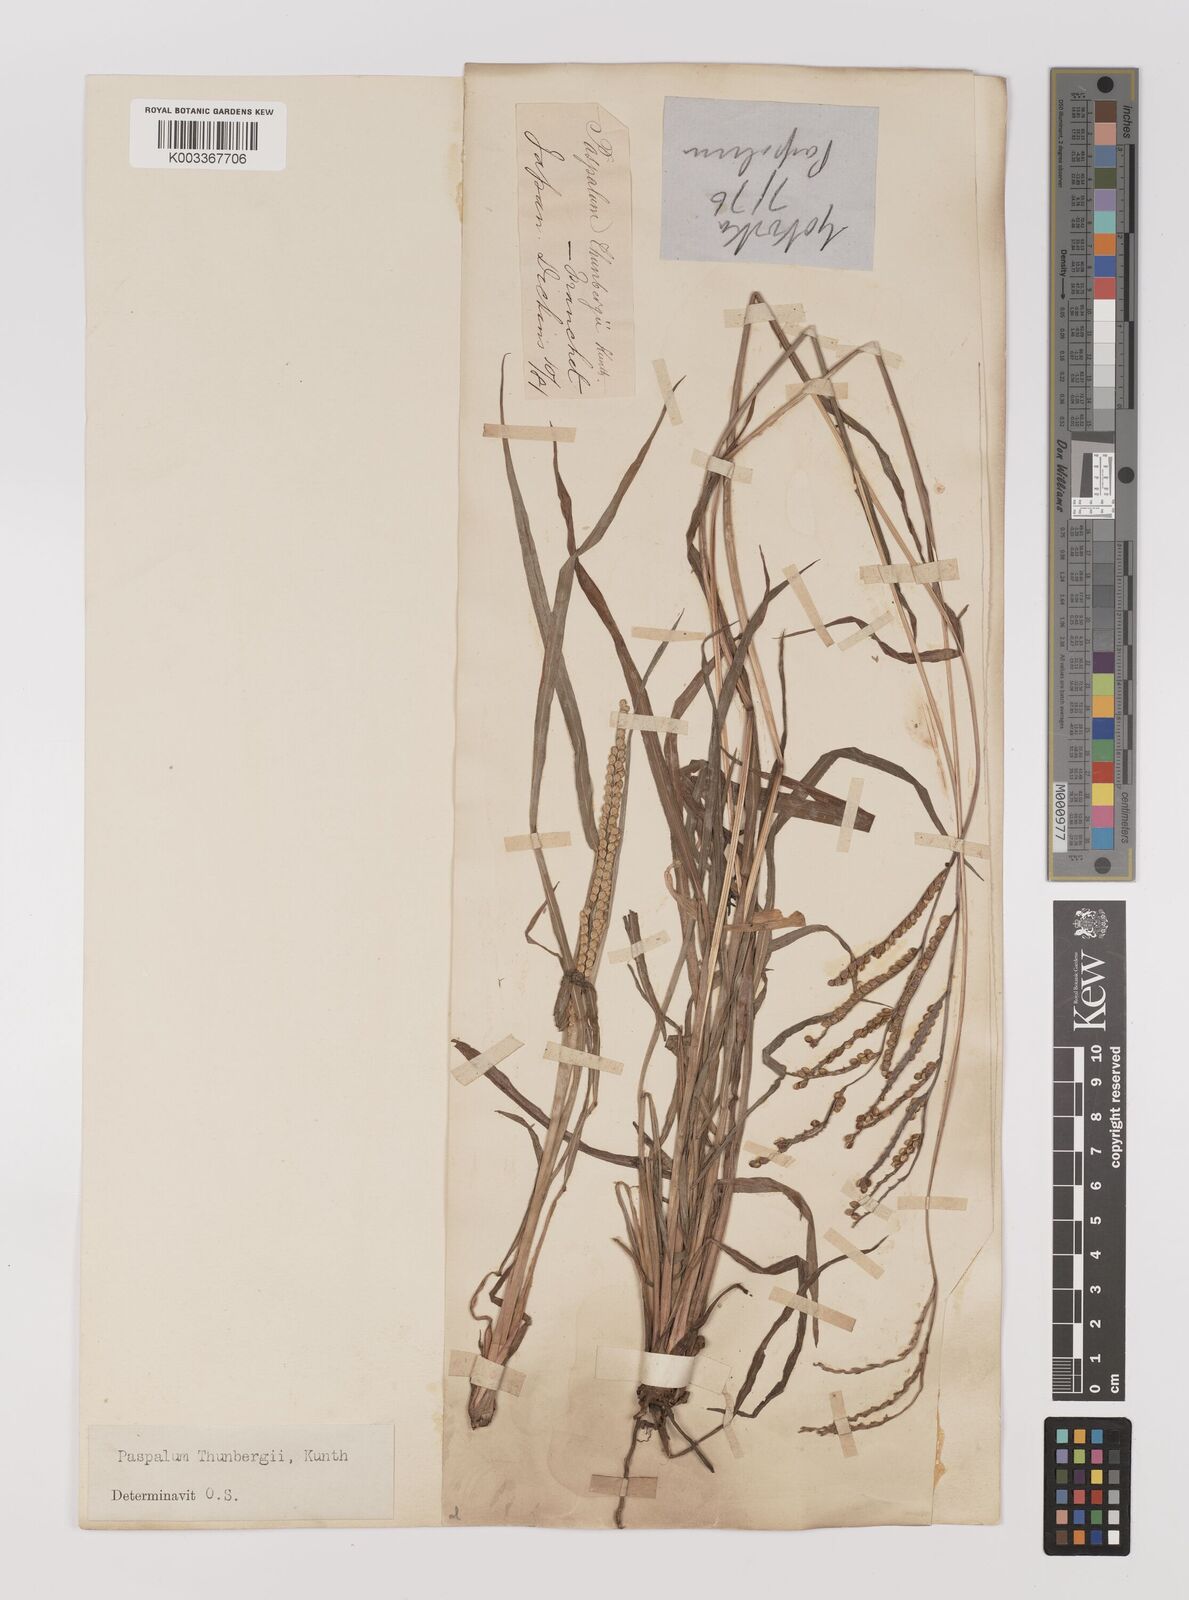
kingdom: Plantae
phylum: Tracheophyta
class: Liliopsida
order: Poales
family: Poaceae
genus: Panicum
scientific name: Panicum
